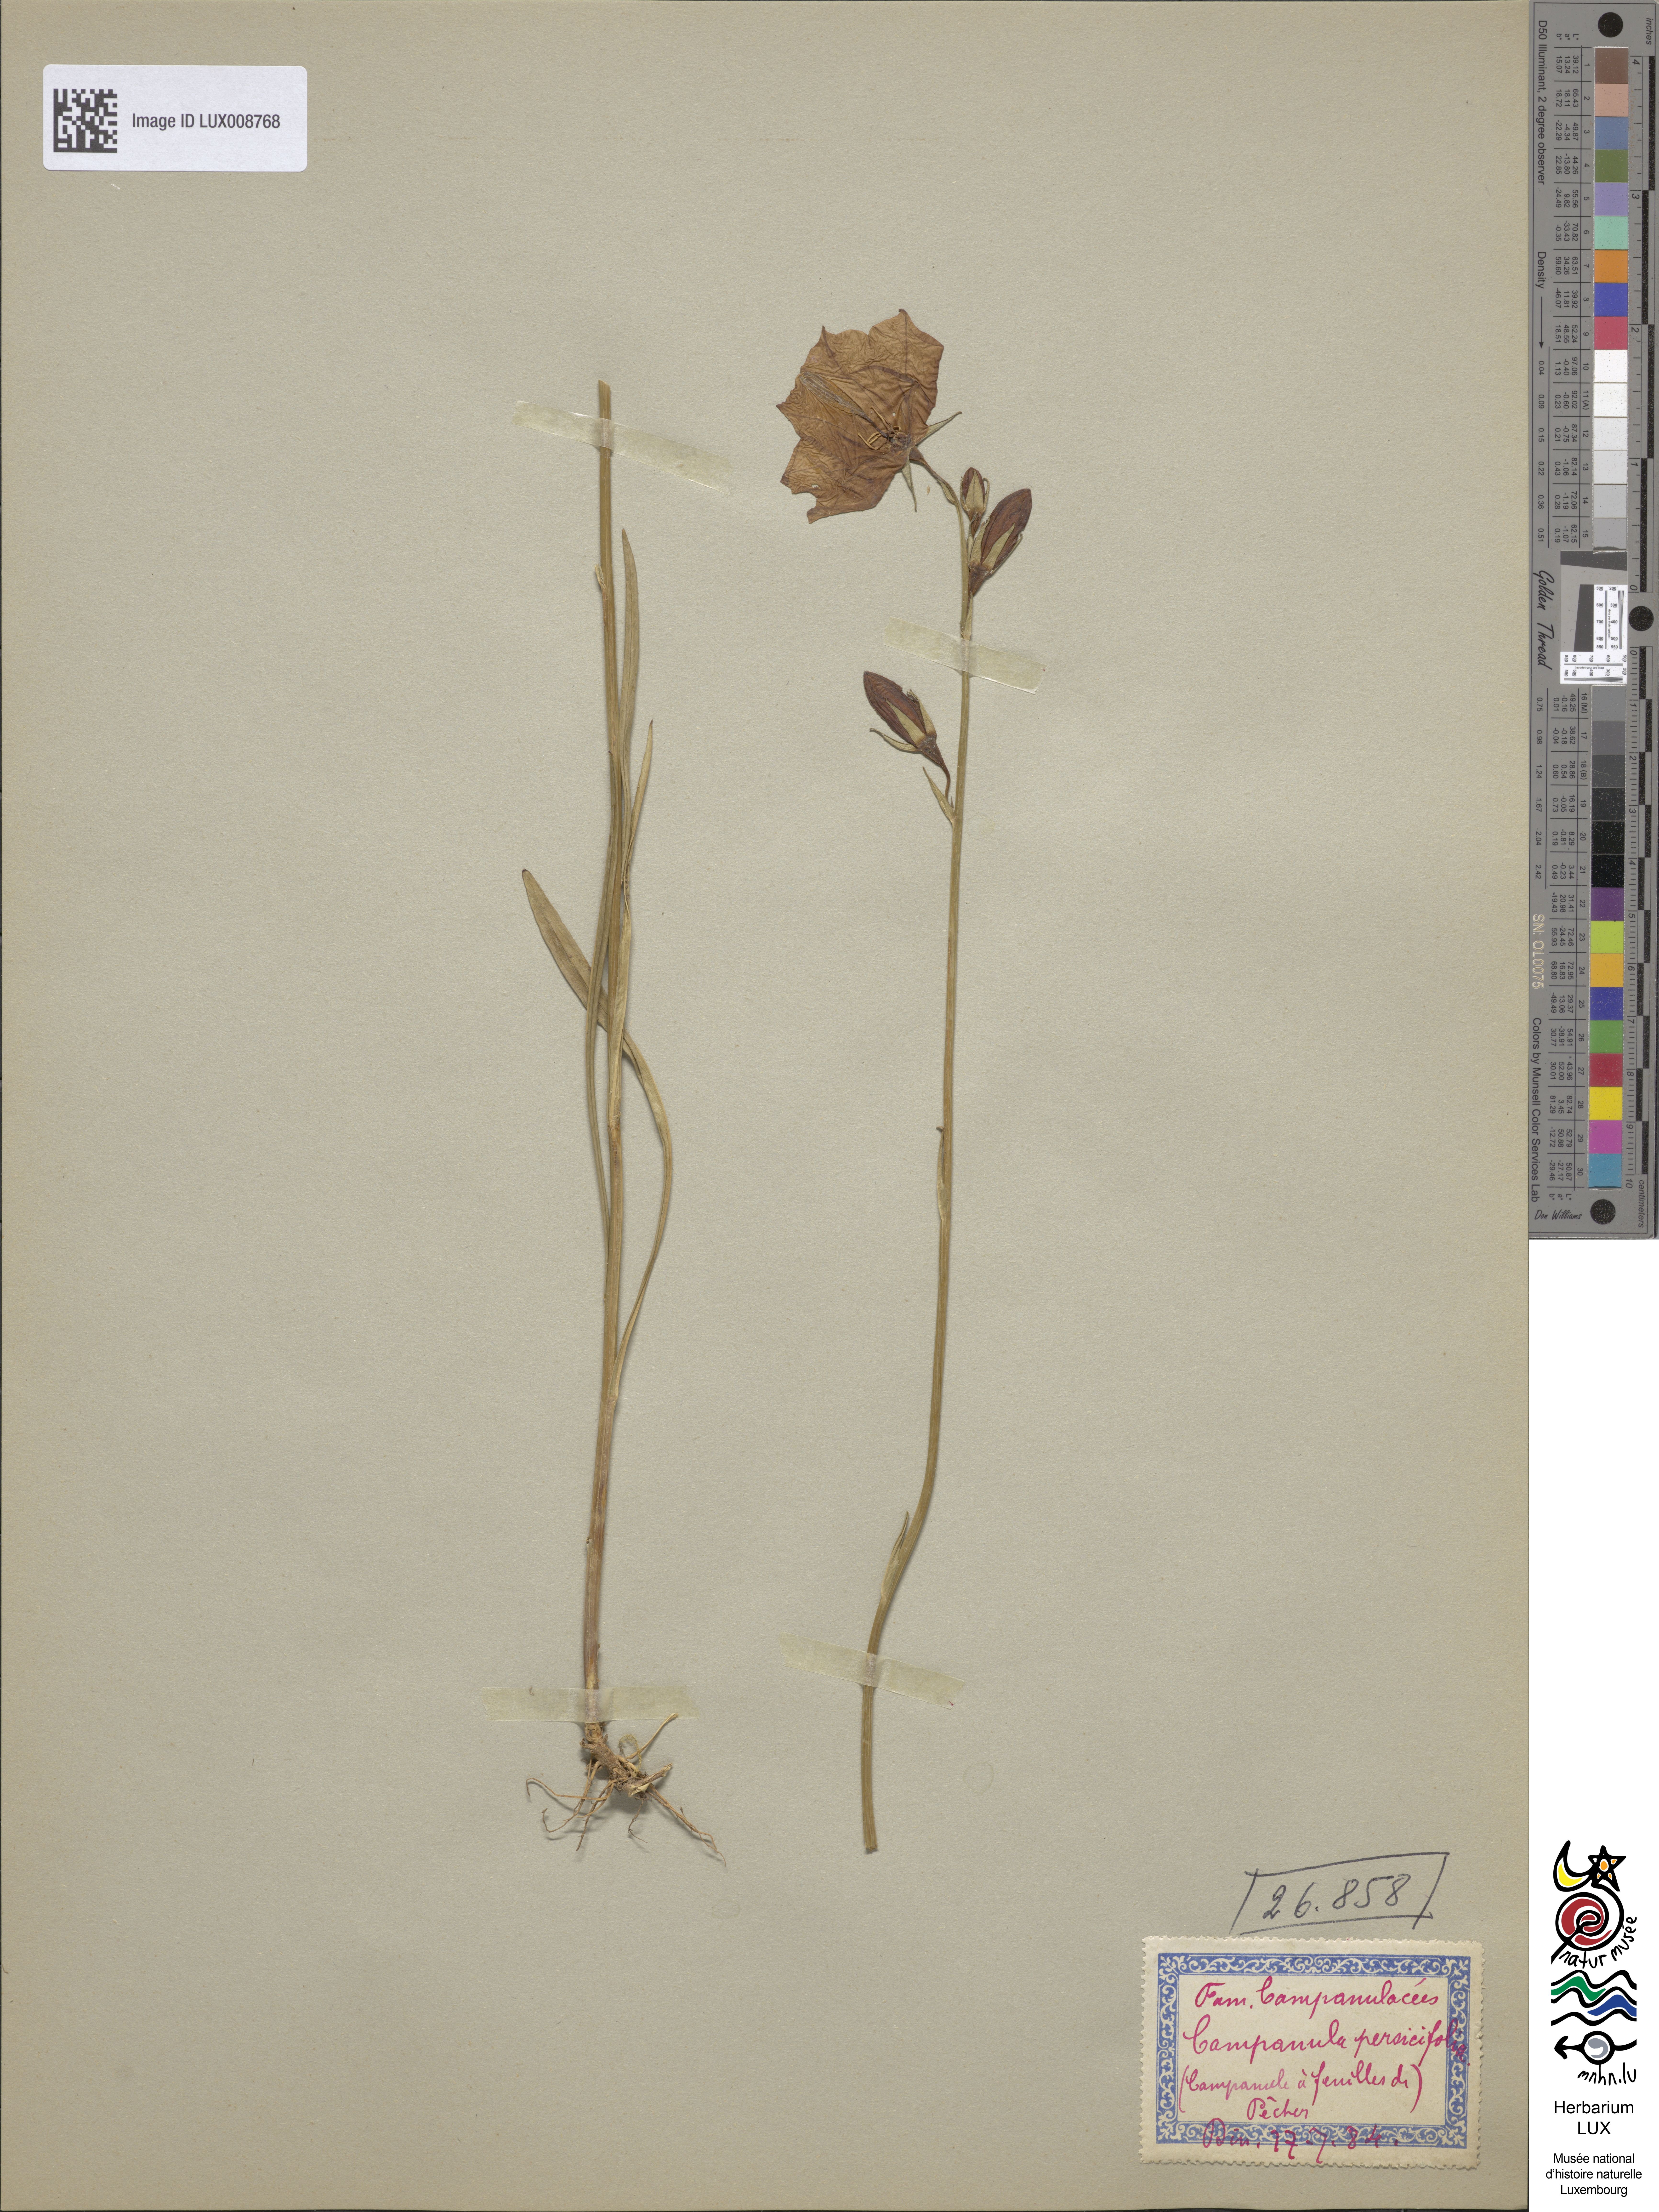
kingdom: Plantae
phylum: Tracheophyta
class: Magnoliopsida
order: Asterales
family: Campanulaceae
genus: Campanula
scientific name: Campanula persicifolia
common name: Peach-leaved bellflower
